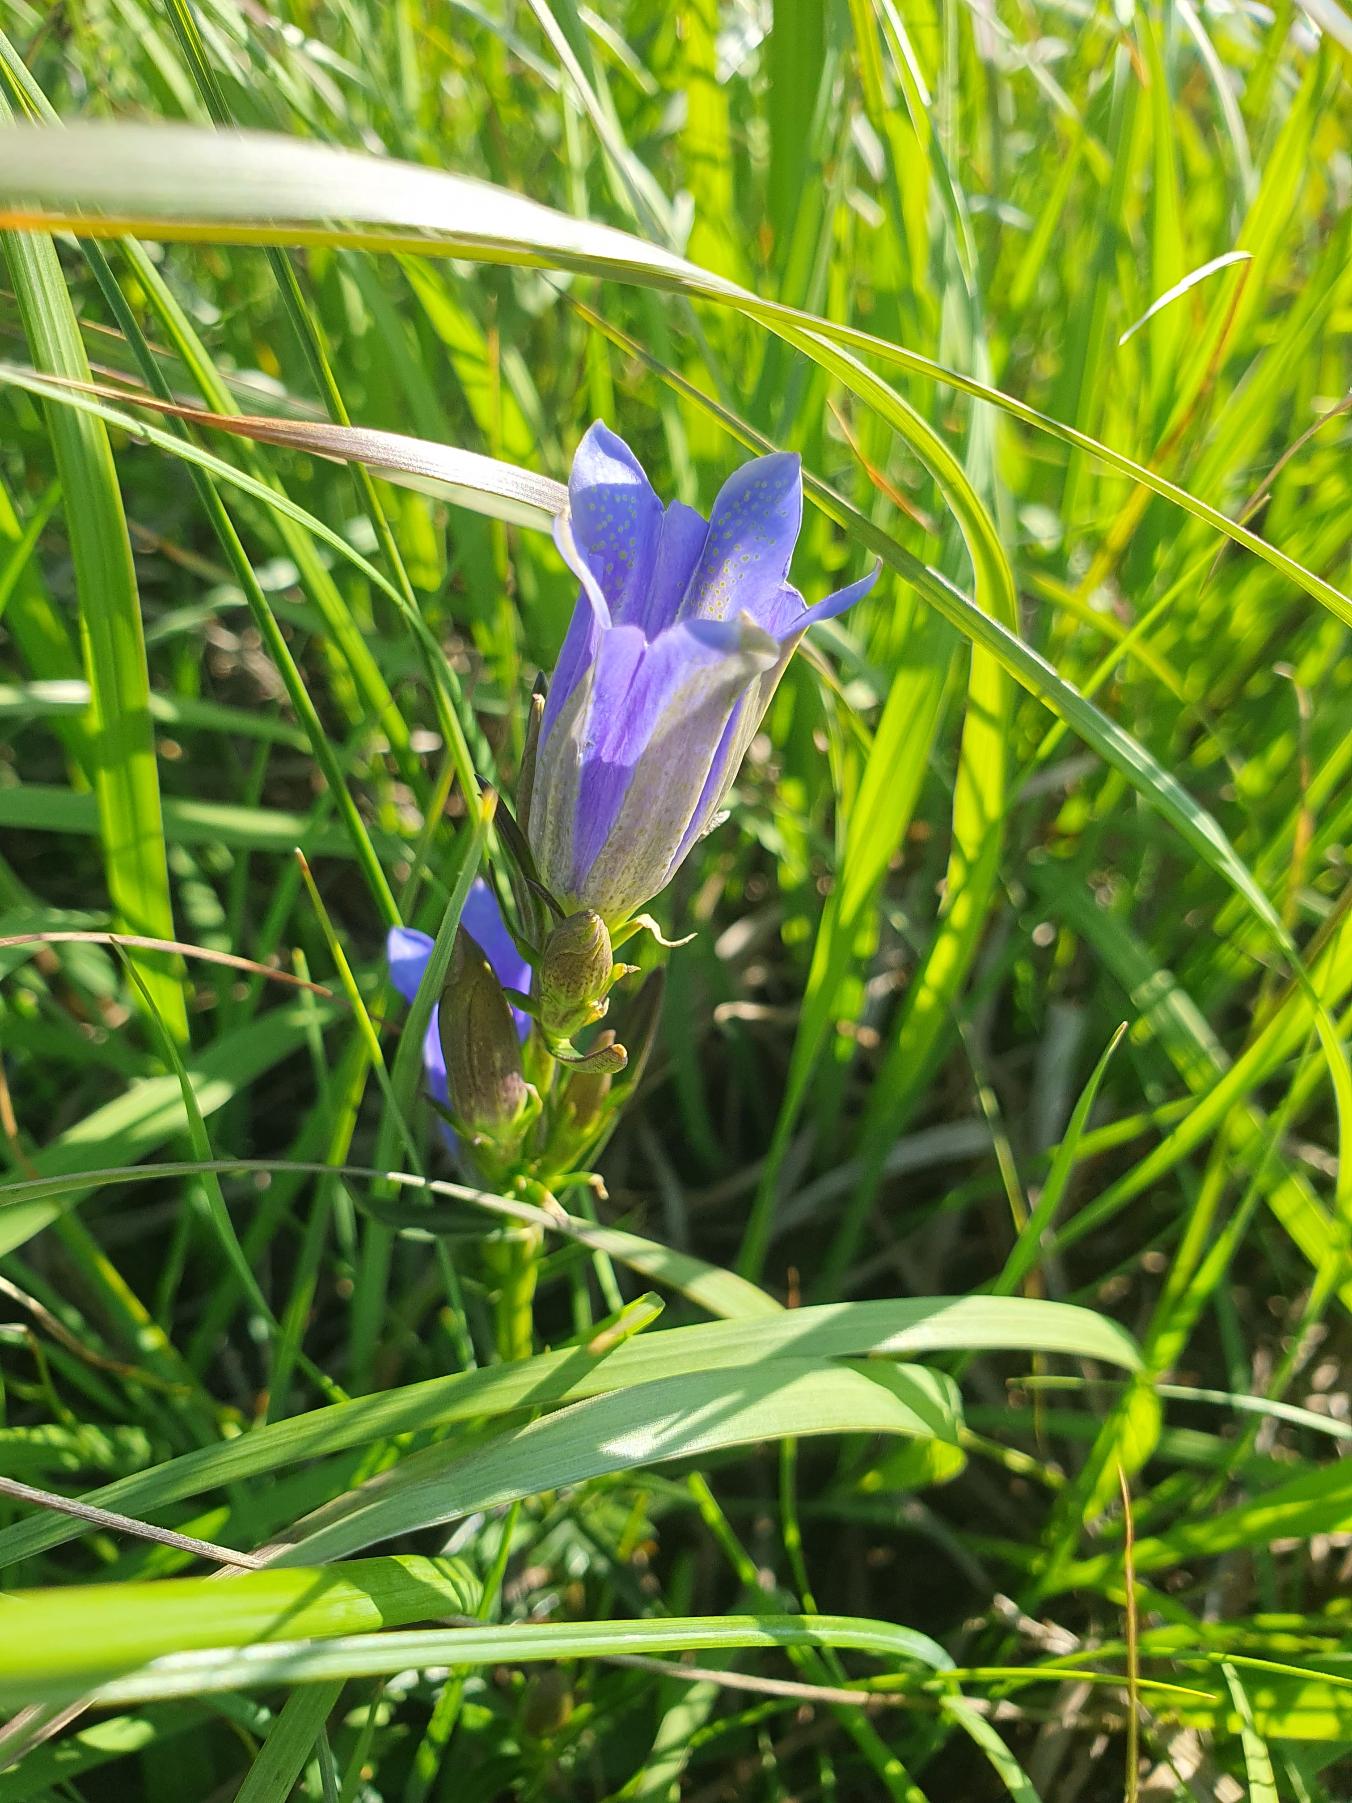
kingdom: Plantae
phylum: Tracheophyta
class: Magnoliopsida
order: Gentianales
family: Gentianaceae
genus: Gentiana
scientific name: Gentiana pneumonanthe
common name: Klokke-ensian
